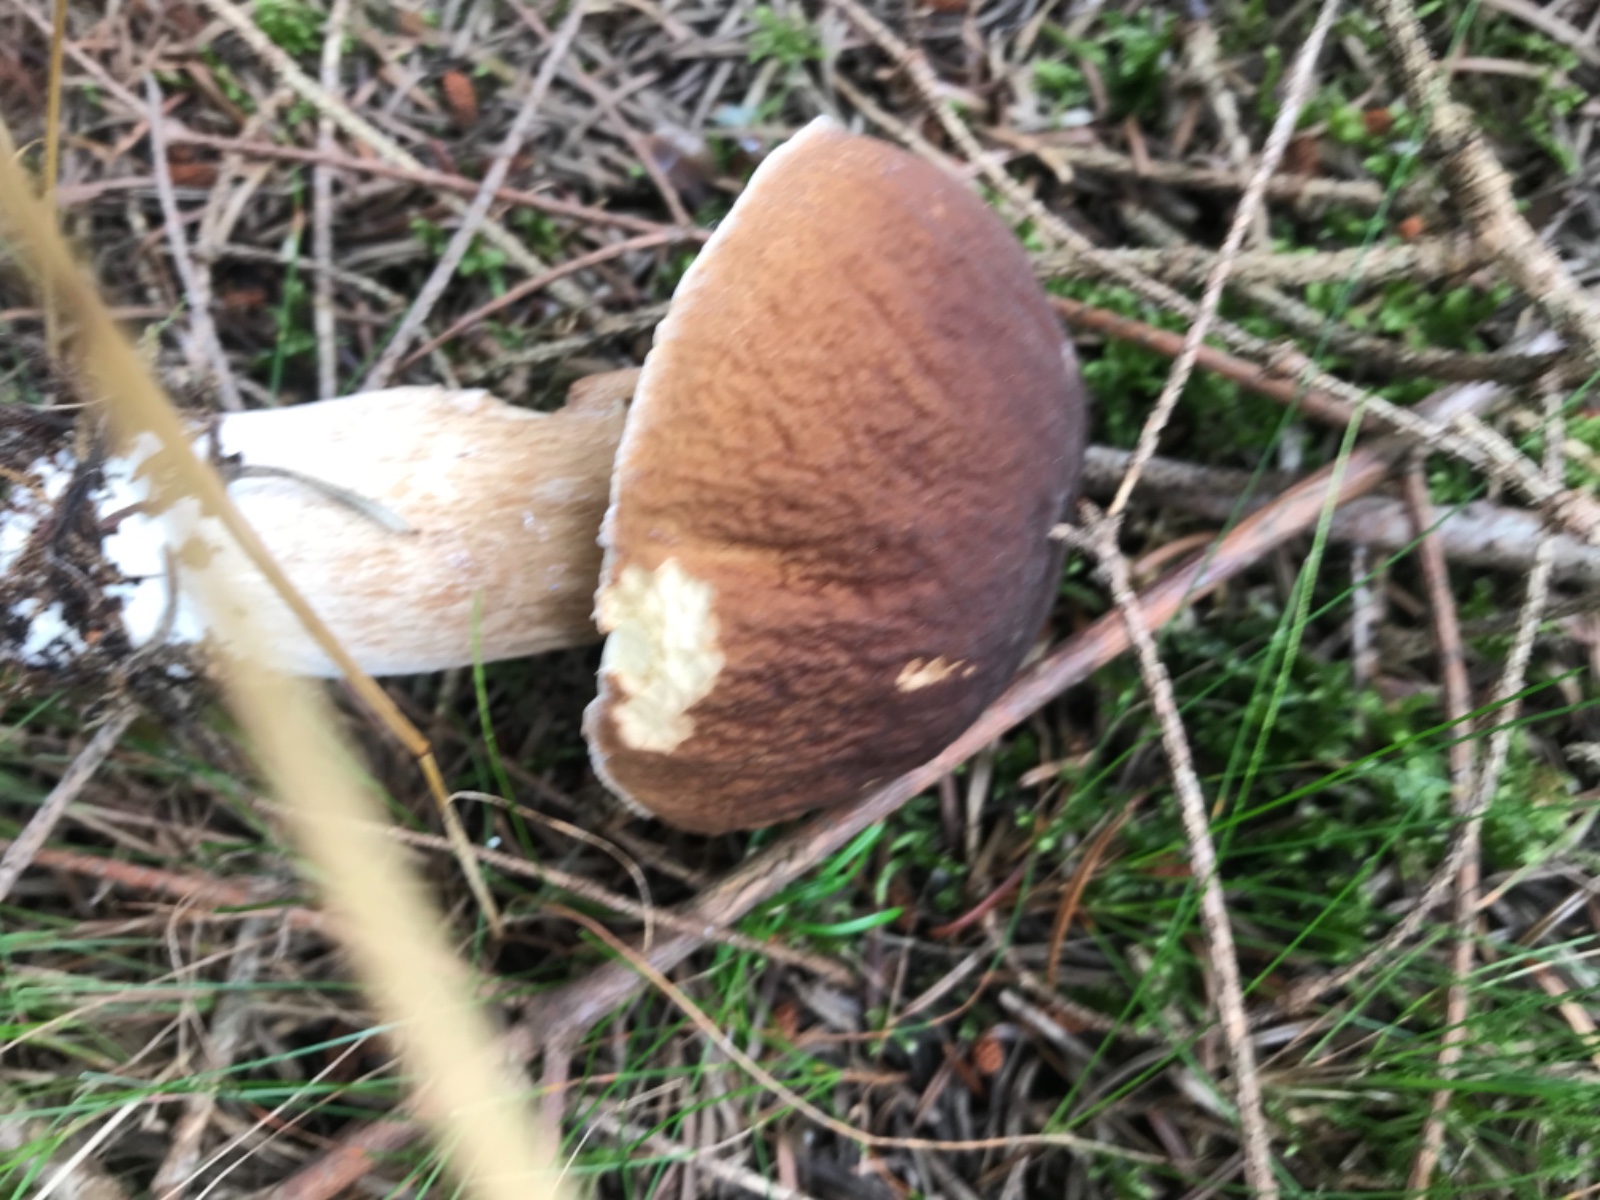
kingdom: Fungi
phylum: Basidiomycota
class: Agaricomycetes
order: Boletales
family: Boletaceae
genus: Boletus
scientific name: Boletus edulis
